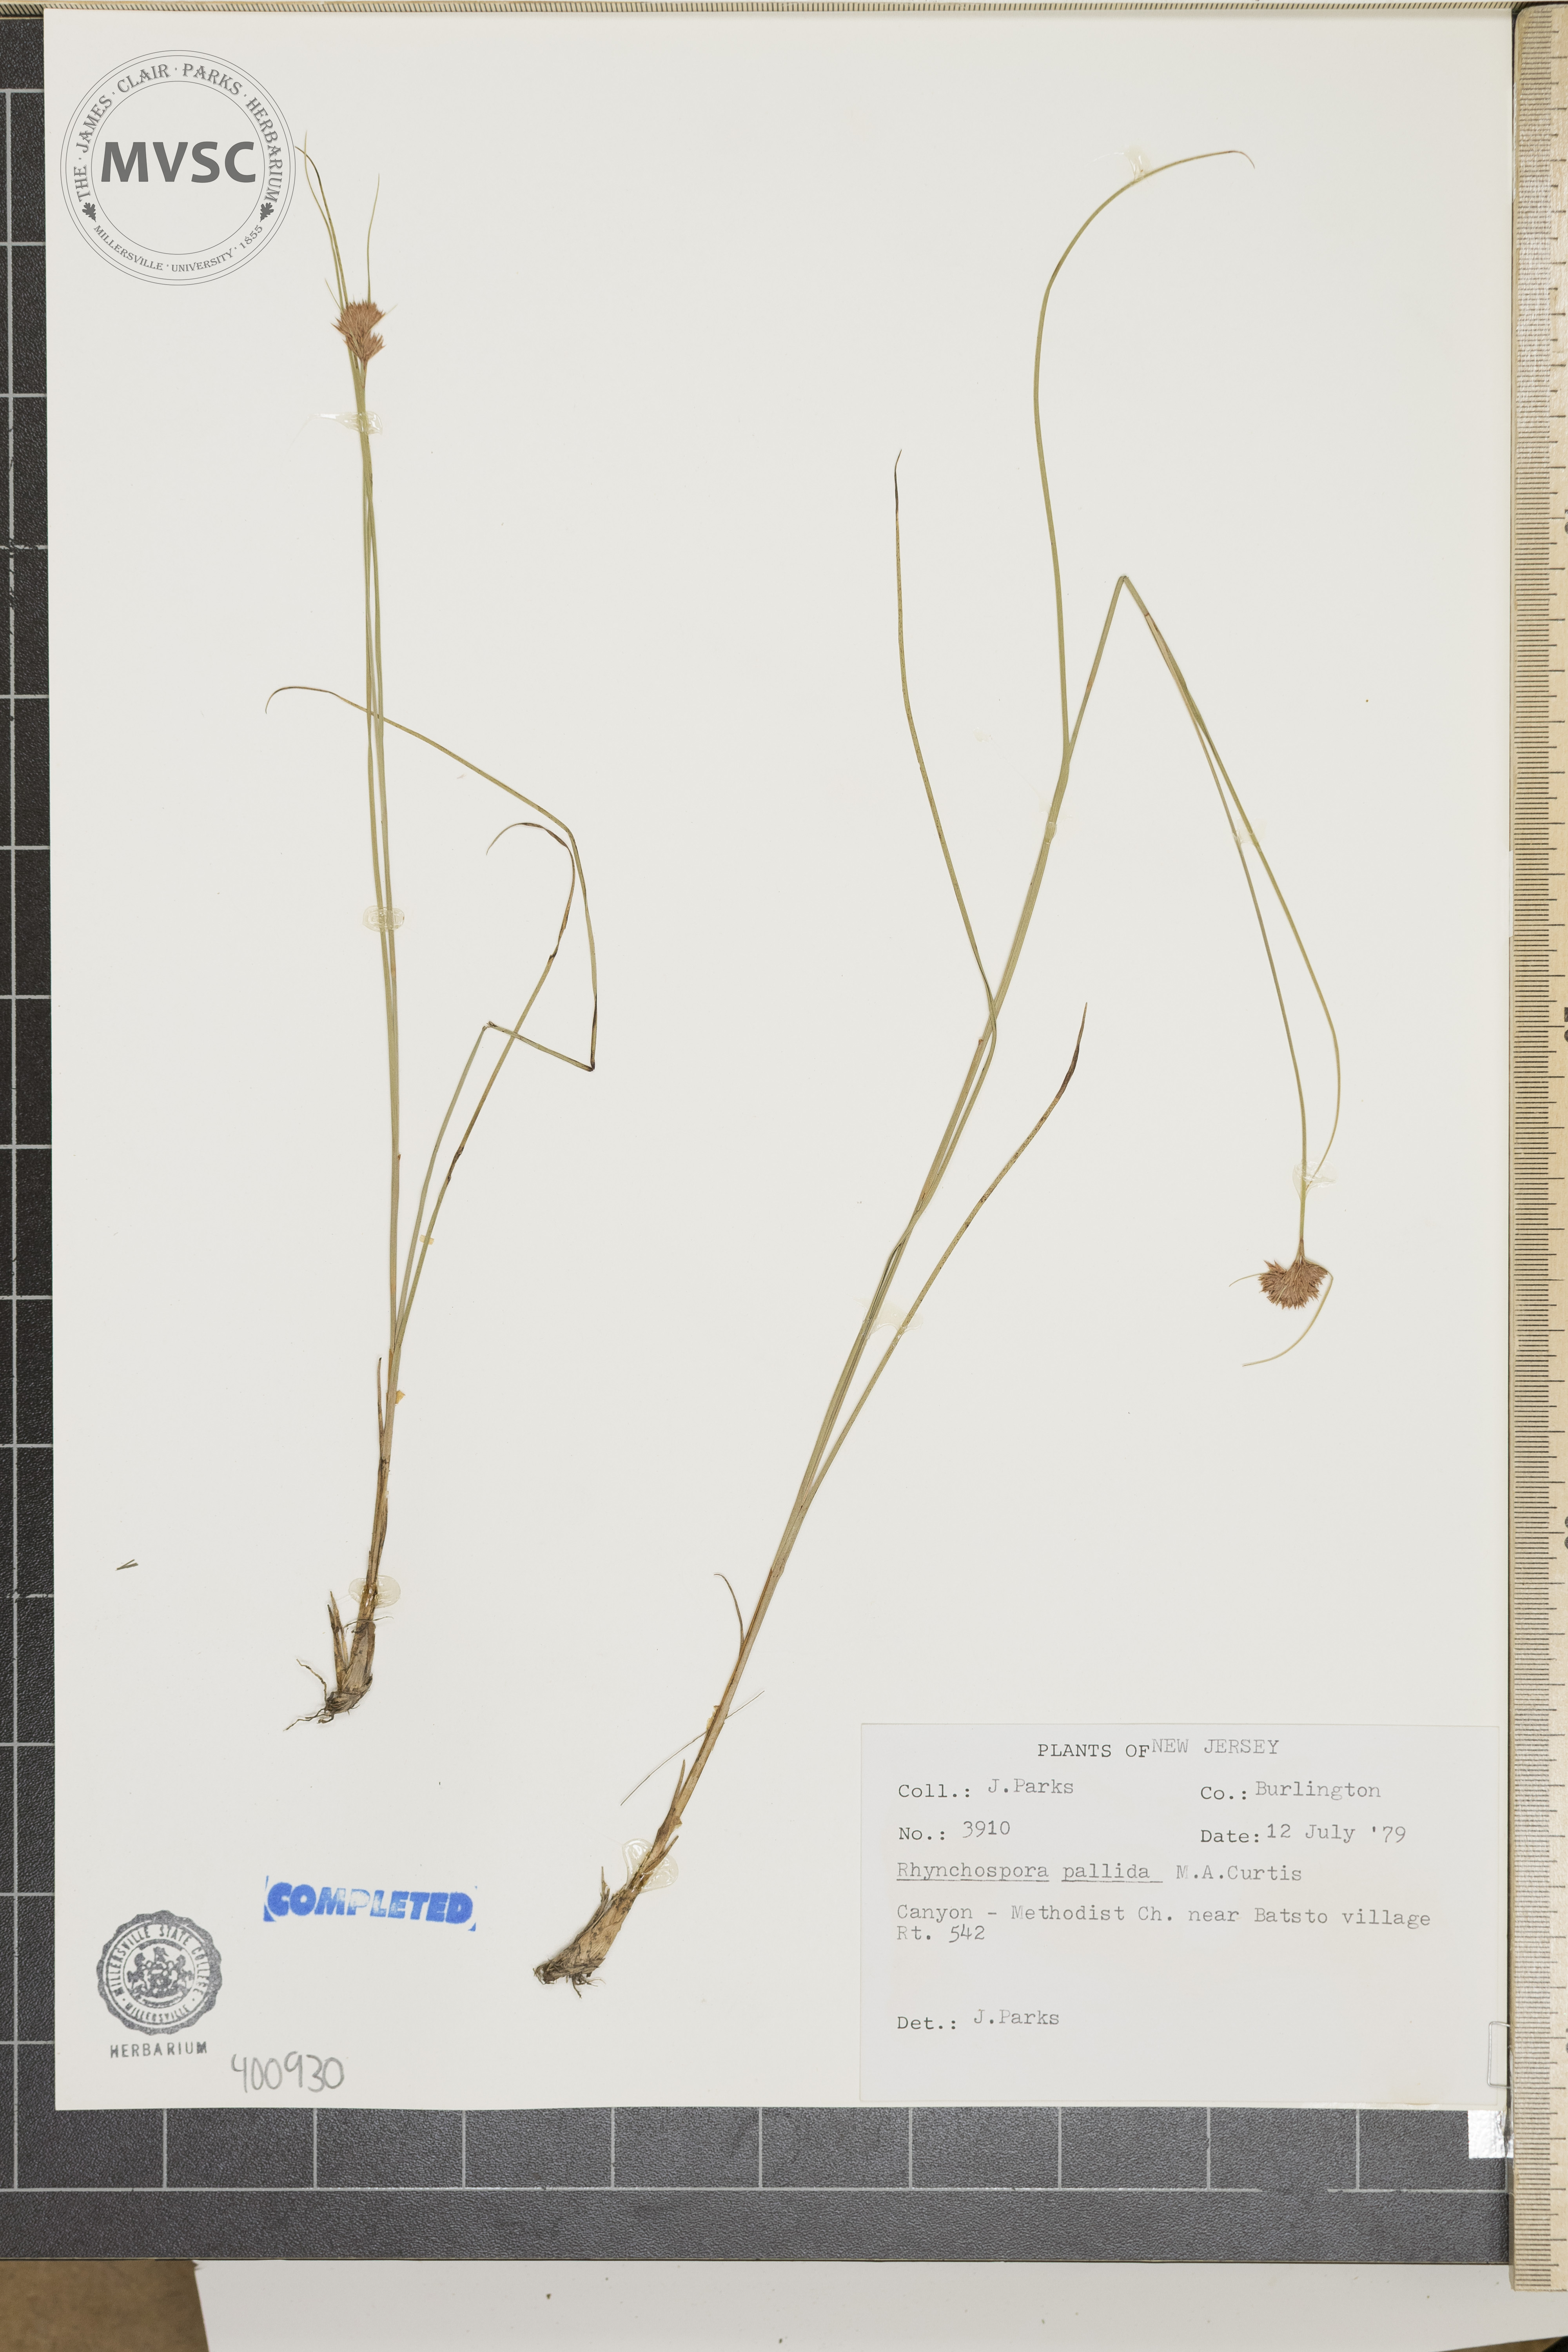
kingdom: Plantae
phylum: Tracheophyta
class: Liliopsida
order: Poales
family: Cyperaceae
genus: Rhynchospora
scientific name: Rhynchospora pallida
